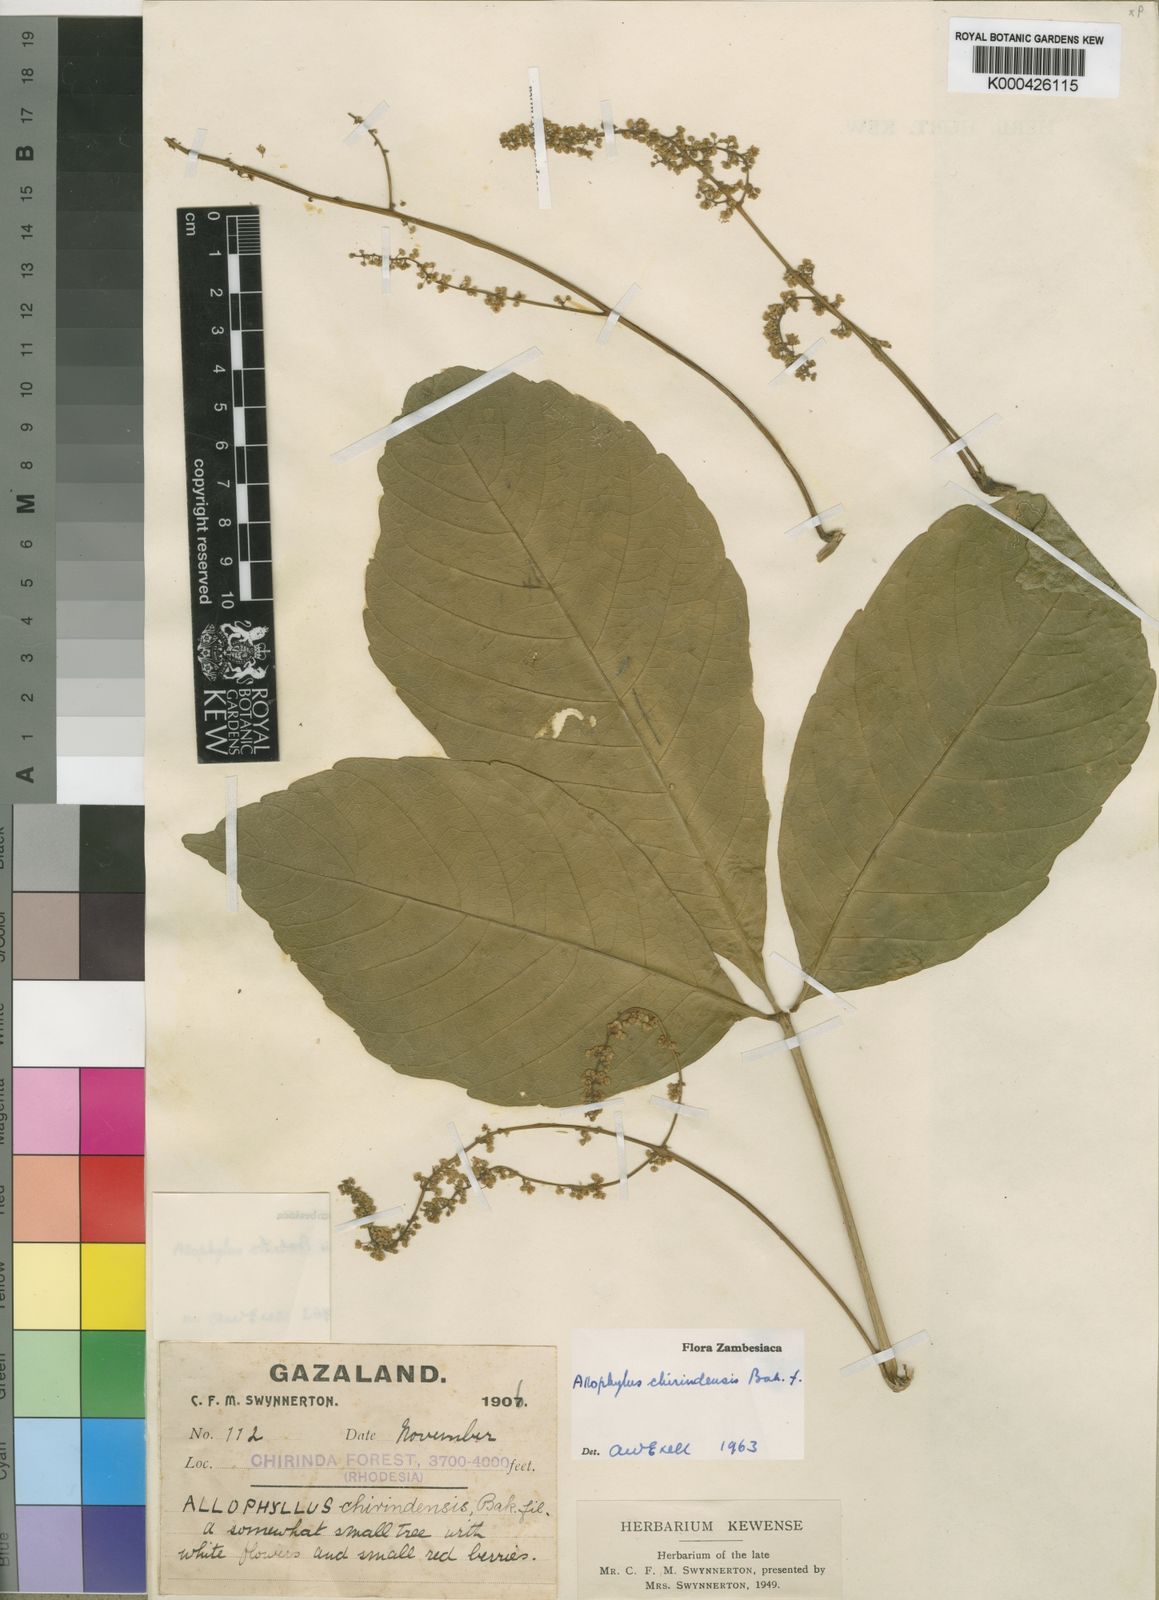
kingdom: Plantae
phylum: Tracheophyta
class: Magnoliopsida
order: Sapindales
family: Sapindaceae
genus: Allophylus
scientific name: Allophylus chirindensis
